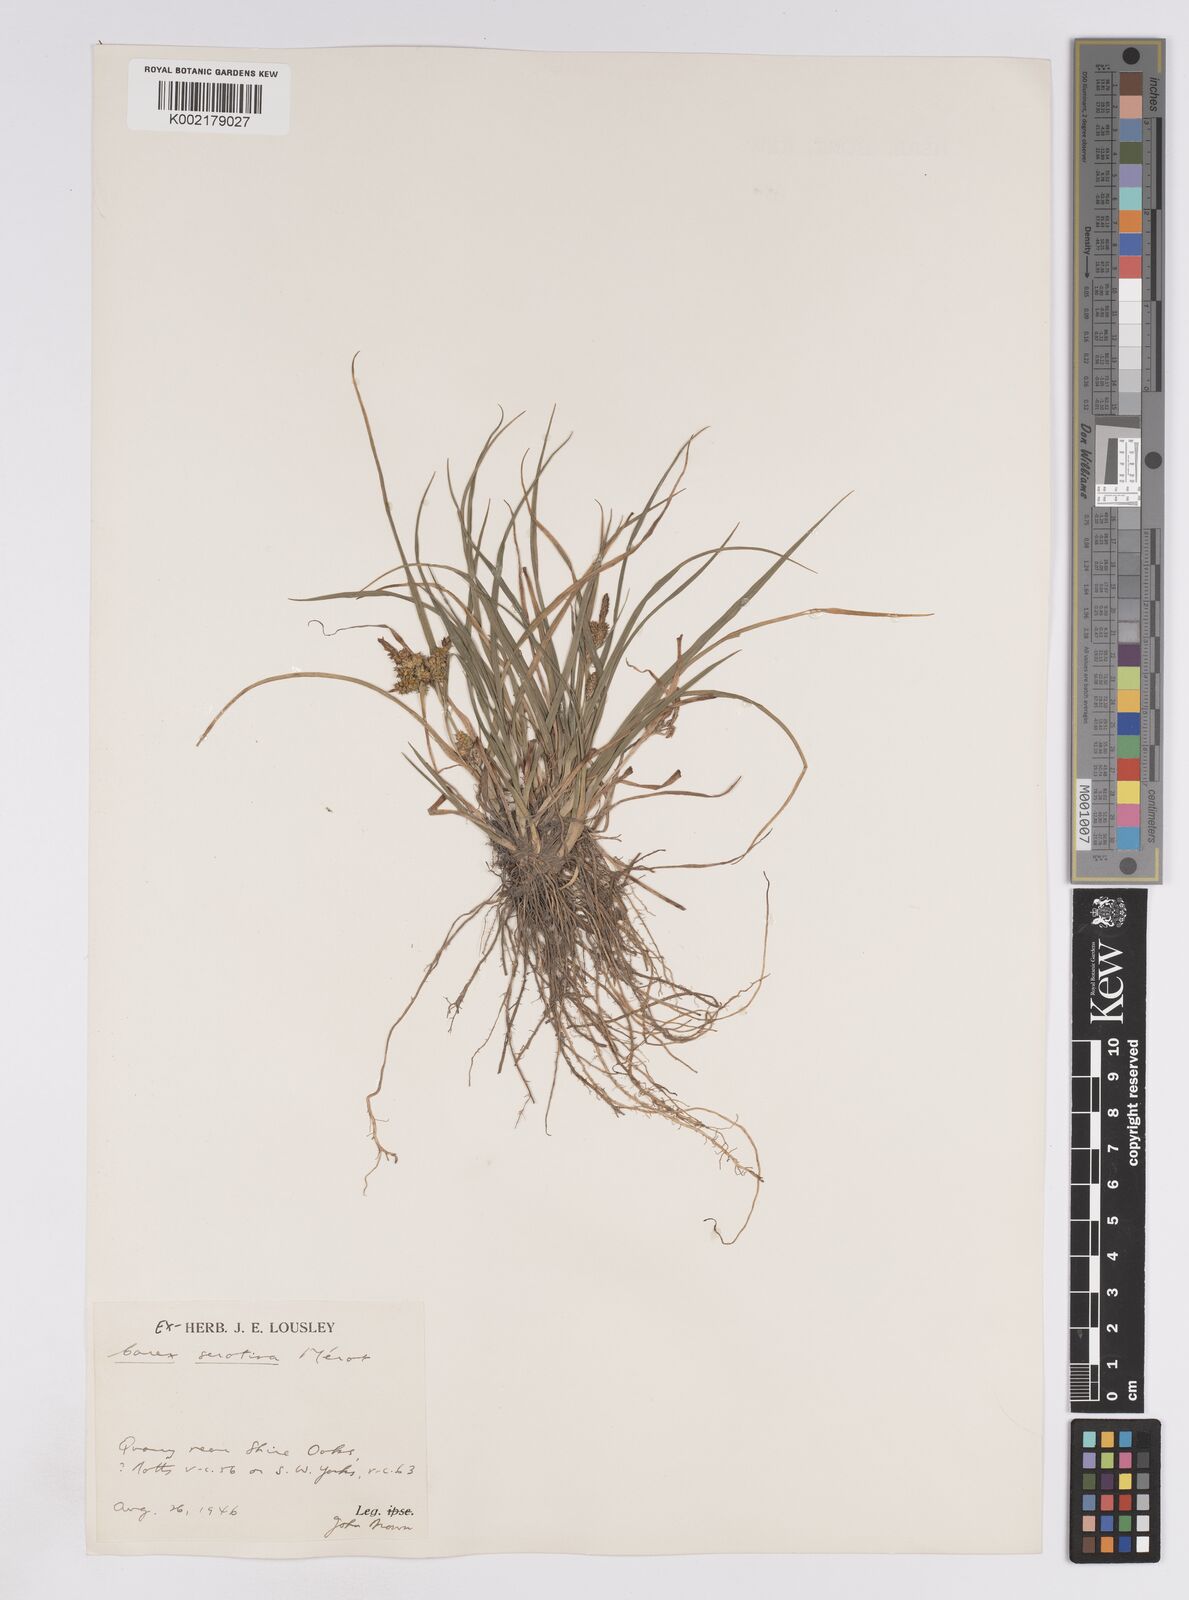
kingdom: Plantae
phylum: Tracheophyta
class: Liliopsida
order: Poales
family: Cyperaceae
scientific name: Cyperaceae
